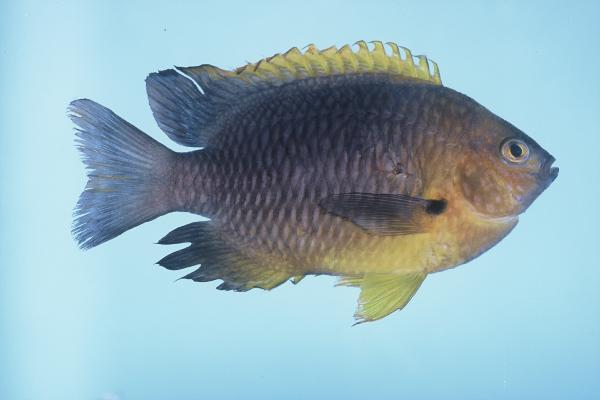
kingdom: Animalia
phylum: Chordata
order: Perciformes
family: Pomacentridae
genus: Pomacentrus
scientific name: Pomacentrus rodriguesensis
